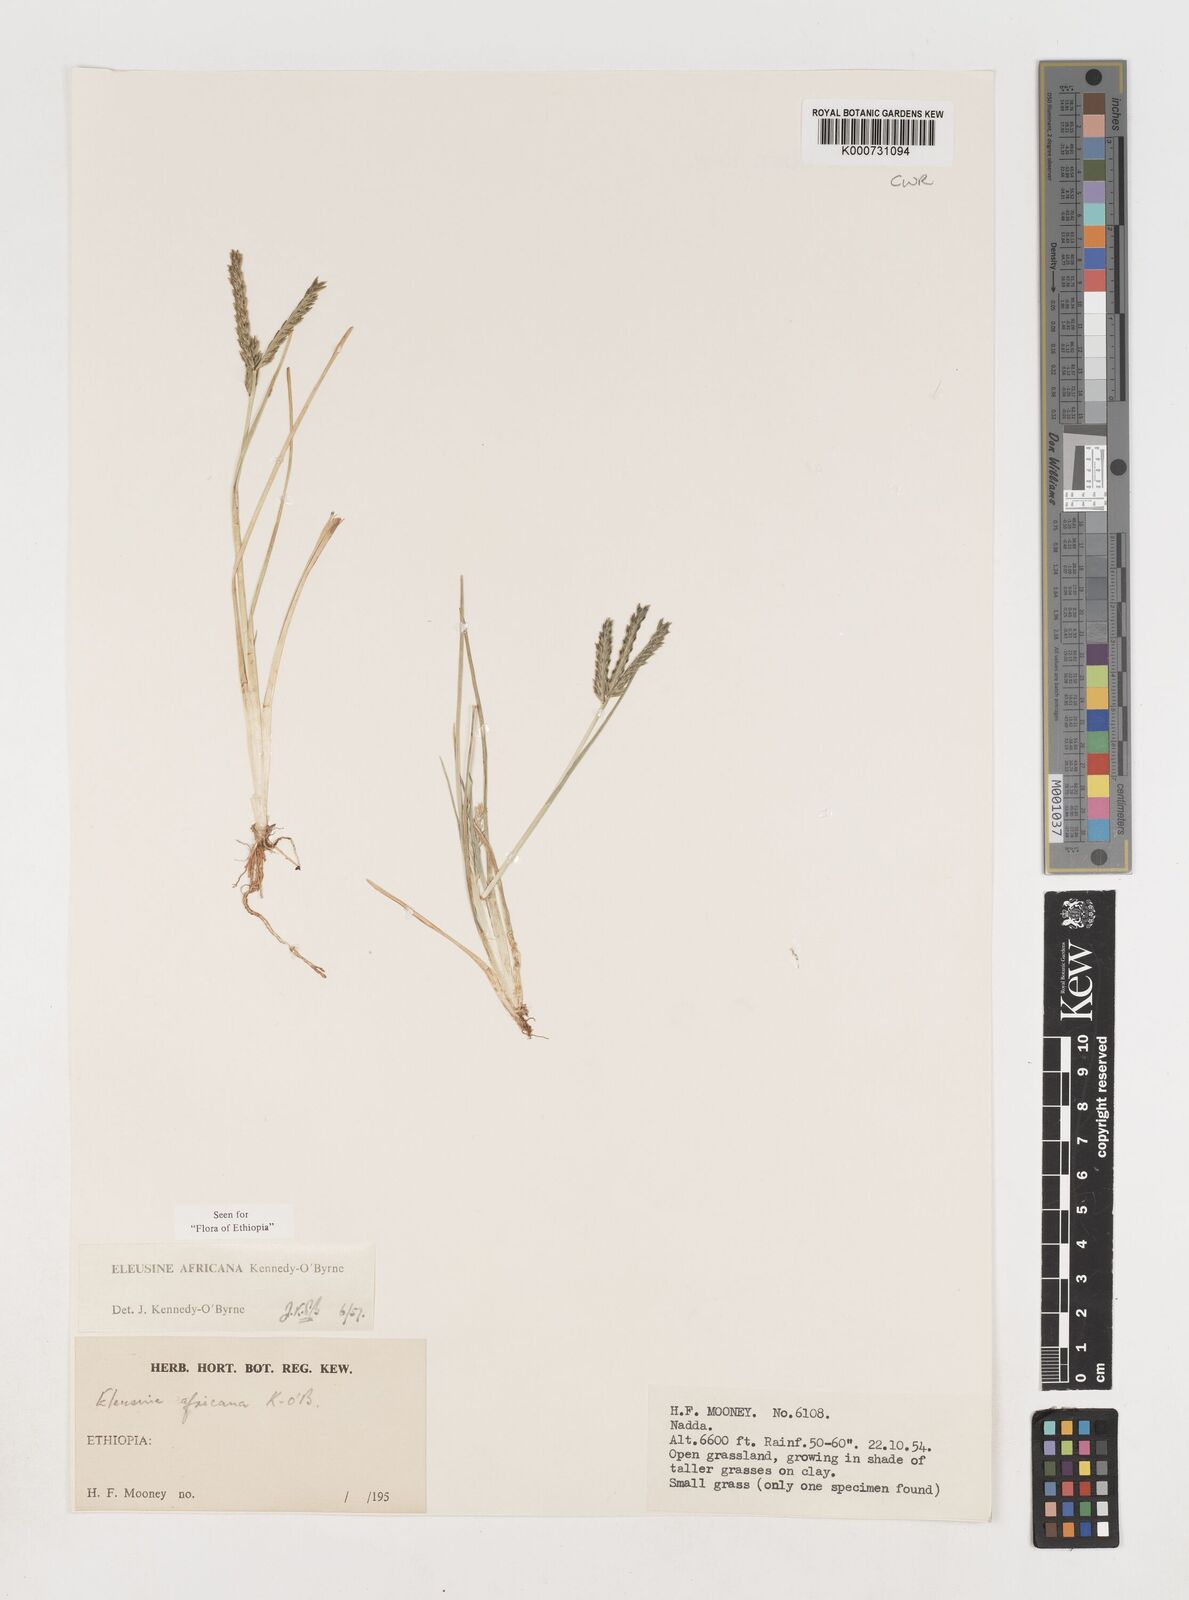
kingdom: Plantae
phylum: Tracheophyta
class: Liliopsida
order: Poales
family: Poaceae
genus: Eleusine
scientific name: Eleusine africana
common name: Wild african finger millet
